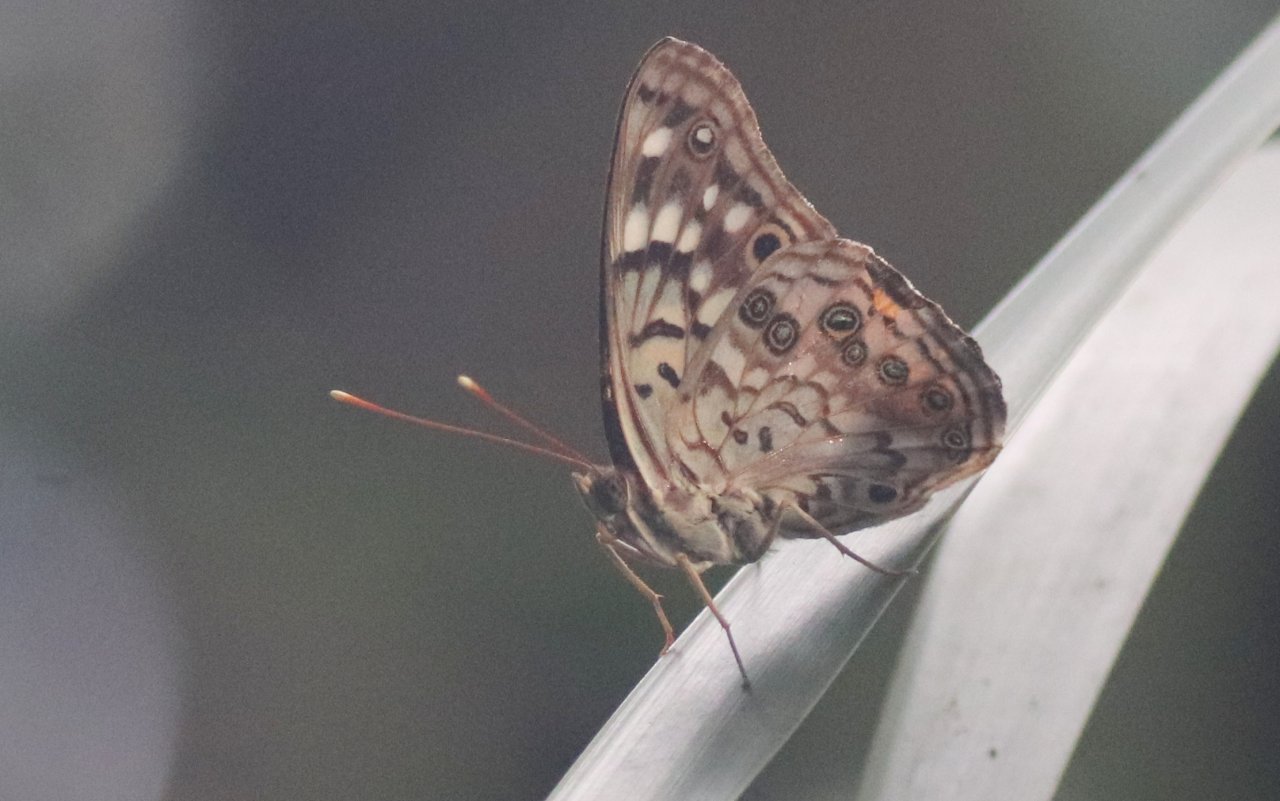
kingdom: Animalia
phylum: Arthropoda
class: Insecta
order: Lepidoptera
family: Nymphalidae
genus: Asterocampa
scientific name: Asterocampa celtis
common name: Hackberry Emperor
